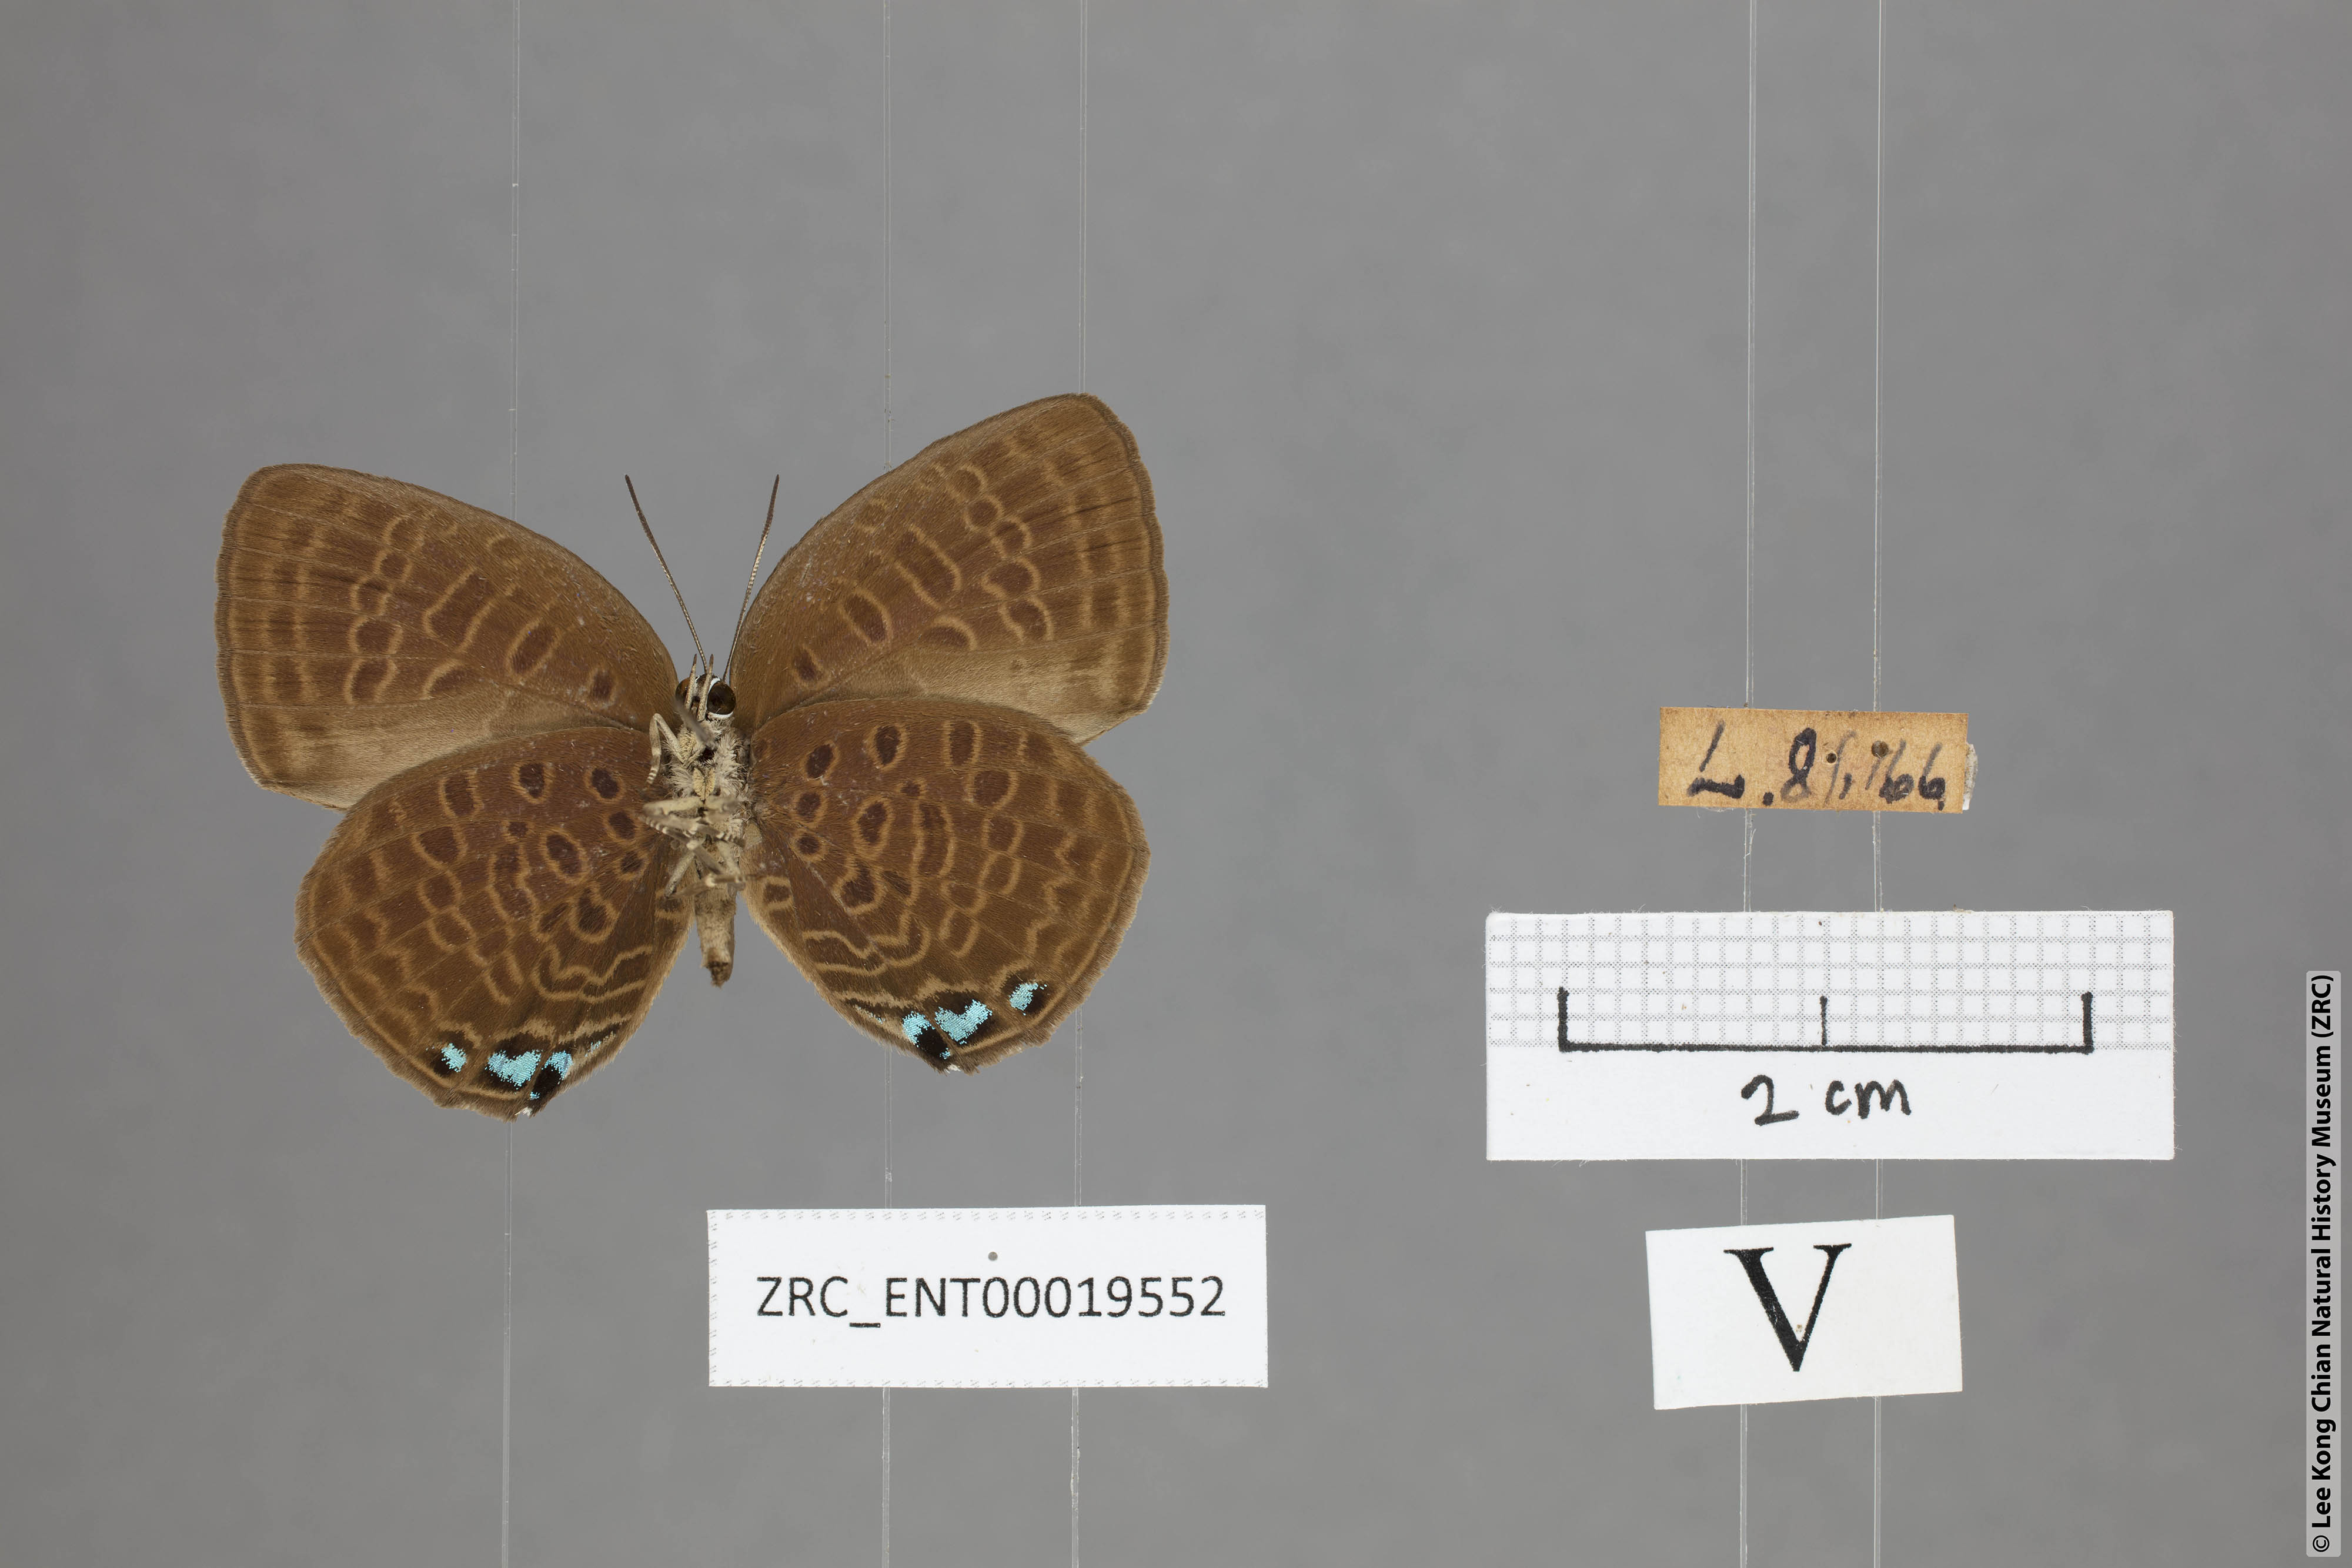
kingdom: Animalia
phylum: Arthropoda
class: Insecta
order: Lepidoptera
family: Lycaenidae
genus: Arhopala
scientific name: Arhopala hypomuta
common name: Violet oakblue
